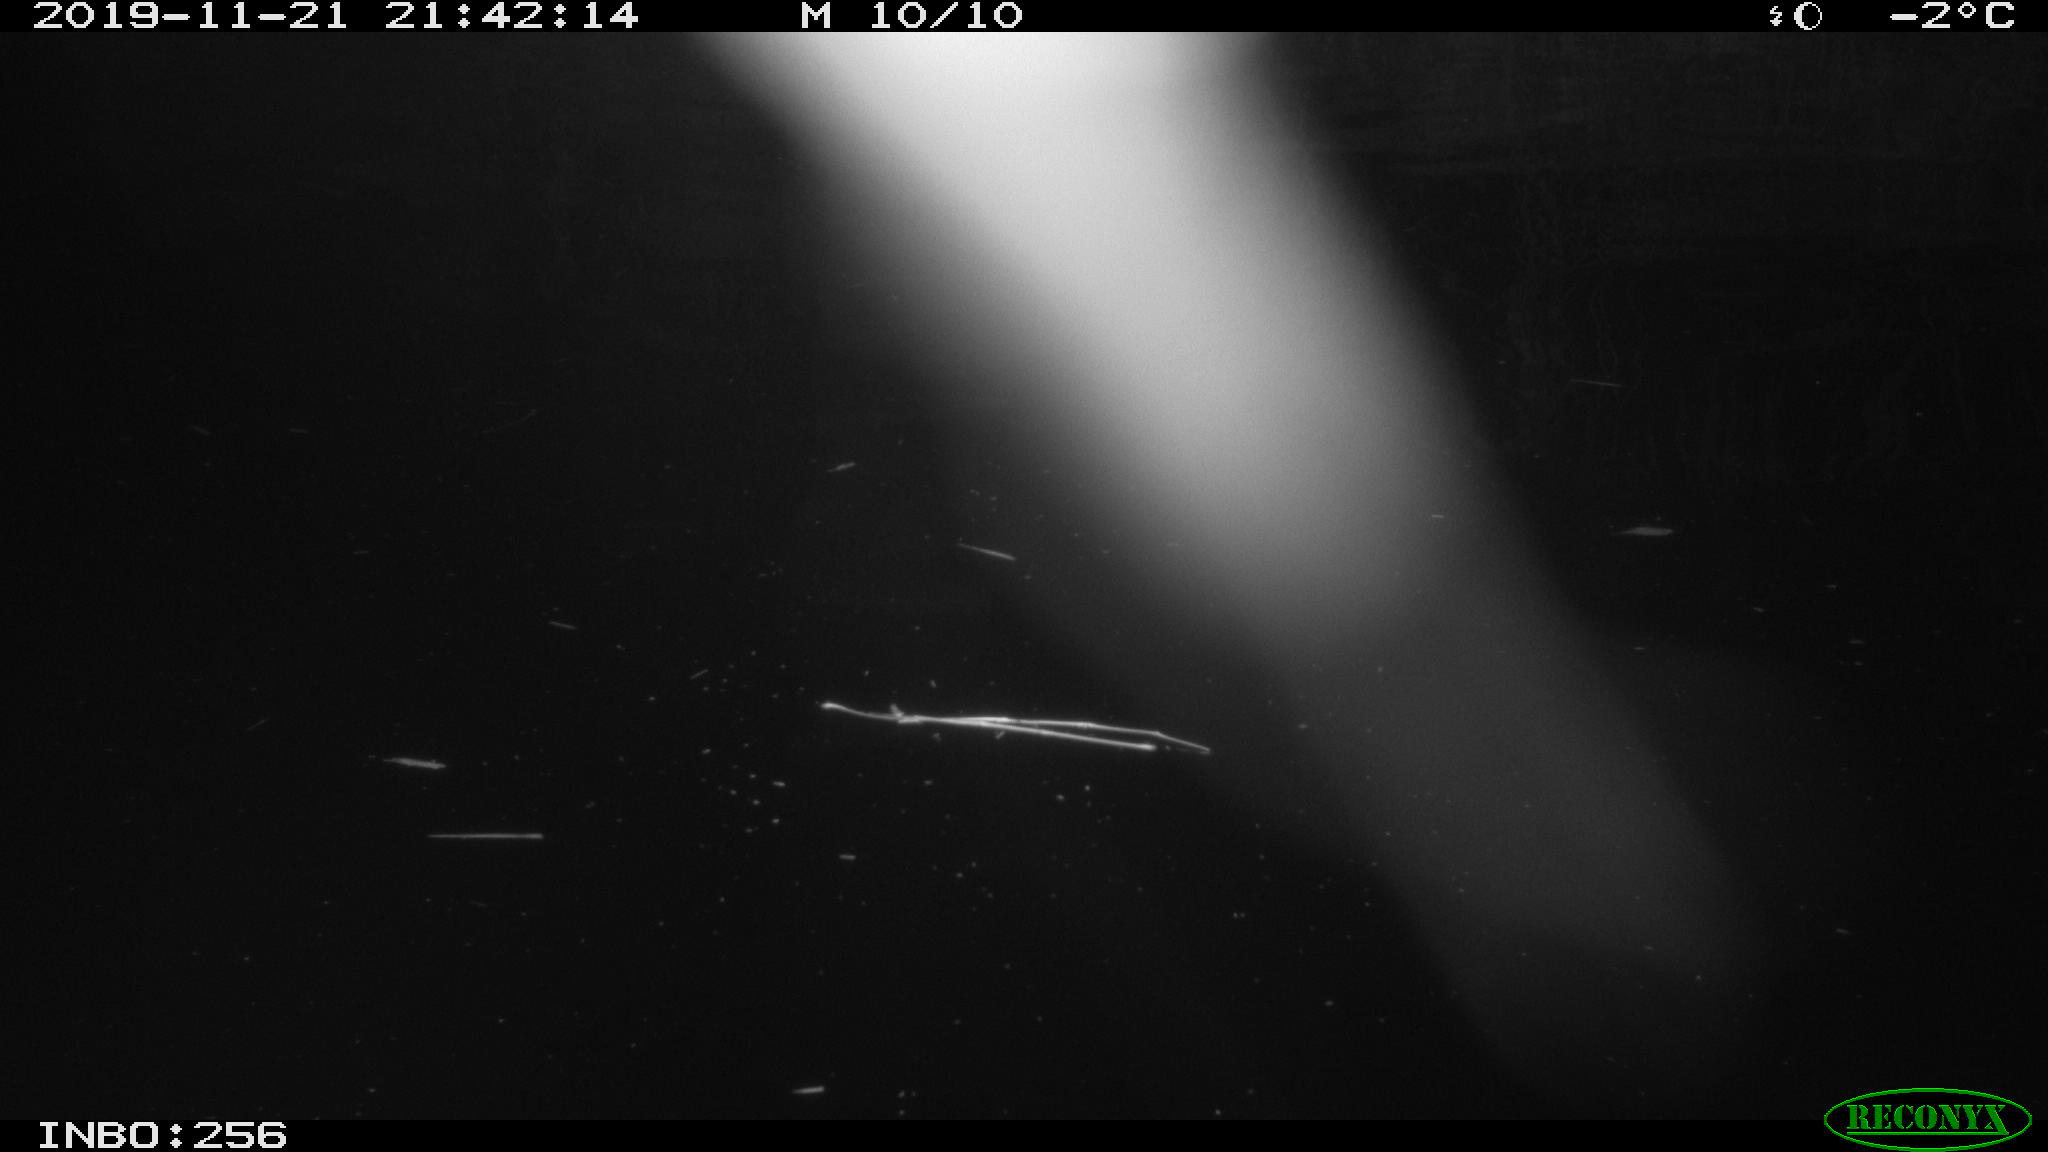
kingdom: Animalia
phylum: Chordata
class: Aves
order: Anseriformes
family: Anatidae
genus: Anas
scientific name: Anas platyrhynchos
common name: Mallard
